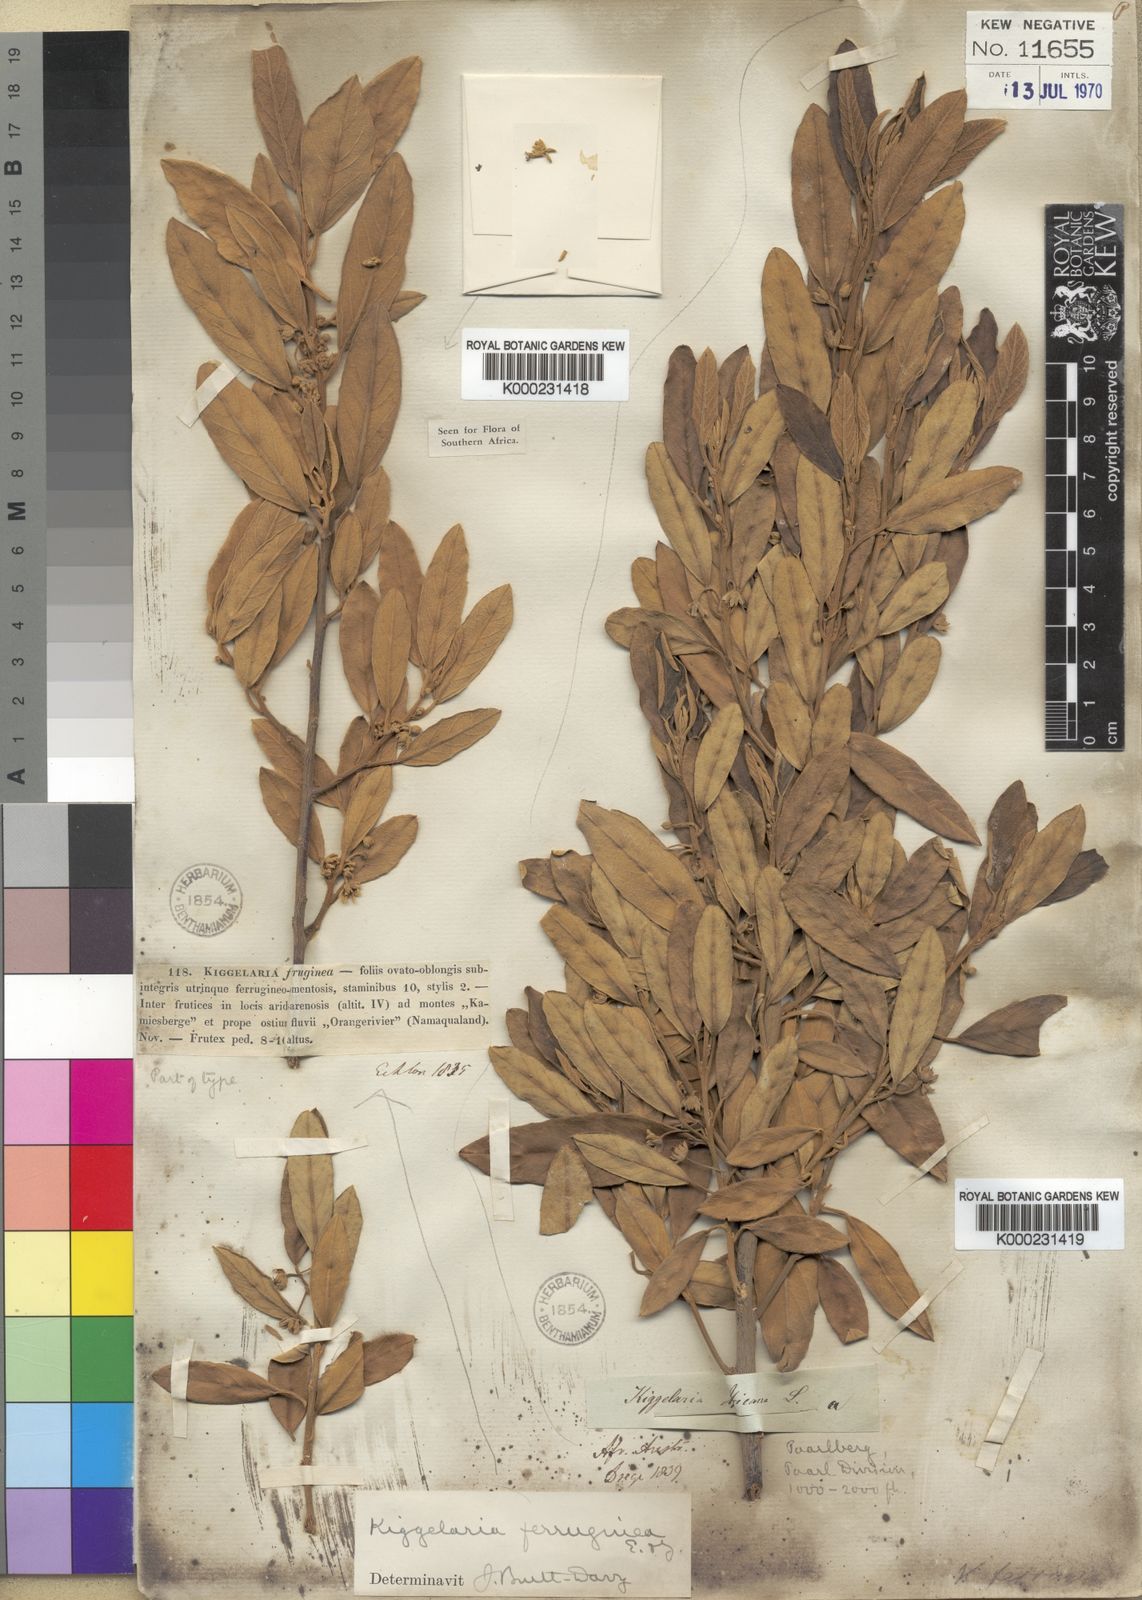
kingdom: Plantae
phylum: Tracheophyta
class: Magnoliopsida
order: Malpighiales
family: Achariaceae
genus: Kiggelaria
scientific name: Kiggelaria africana
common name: Wild peach
